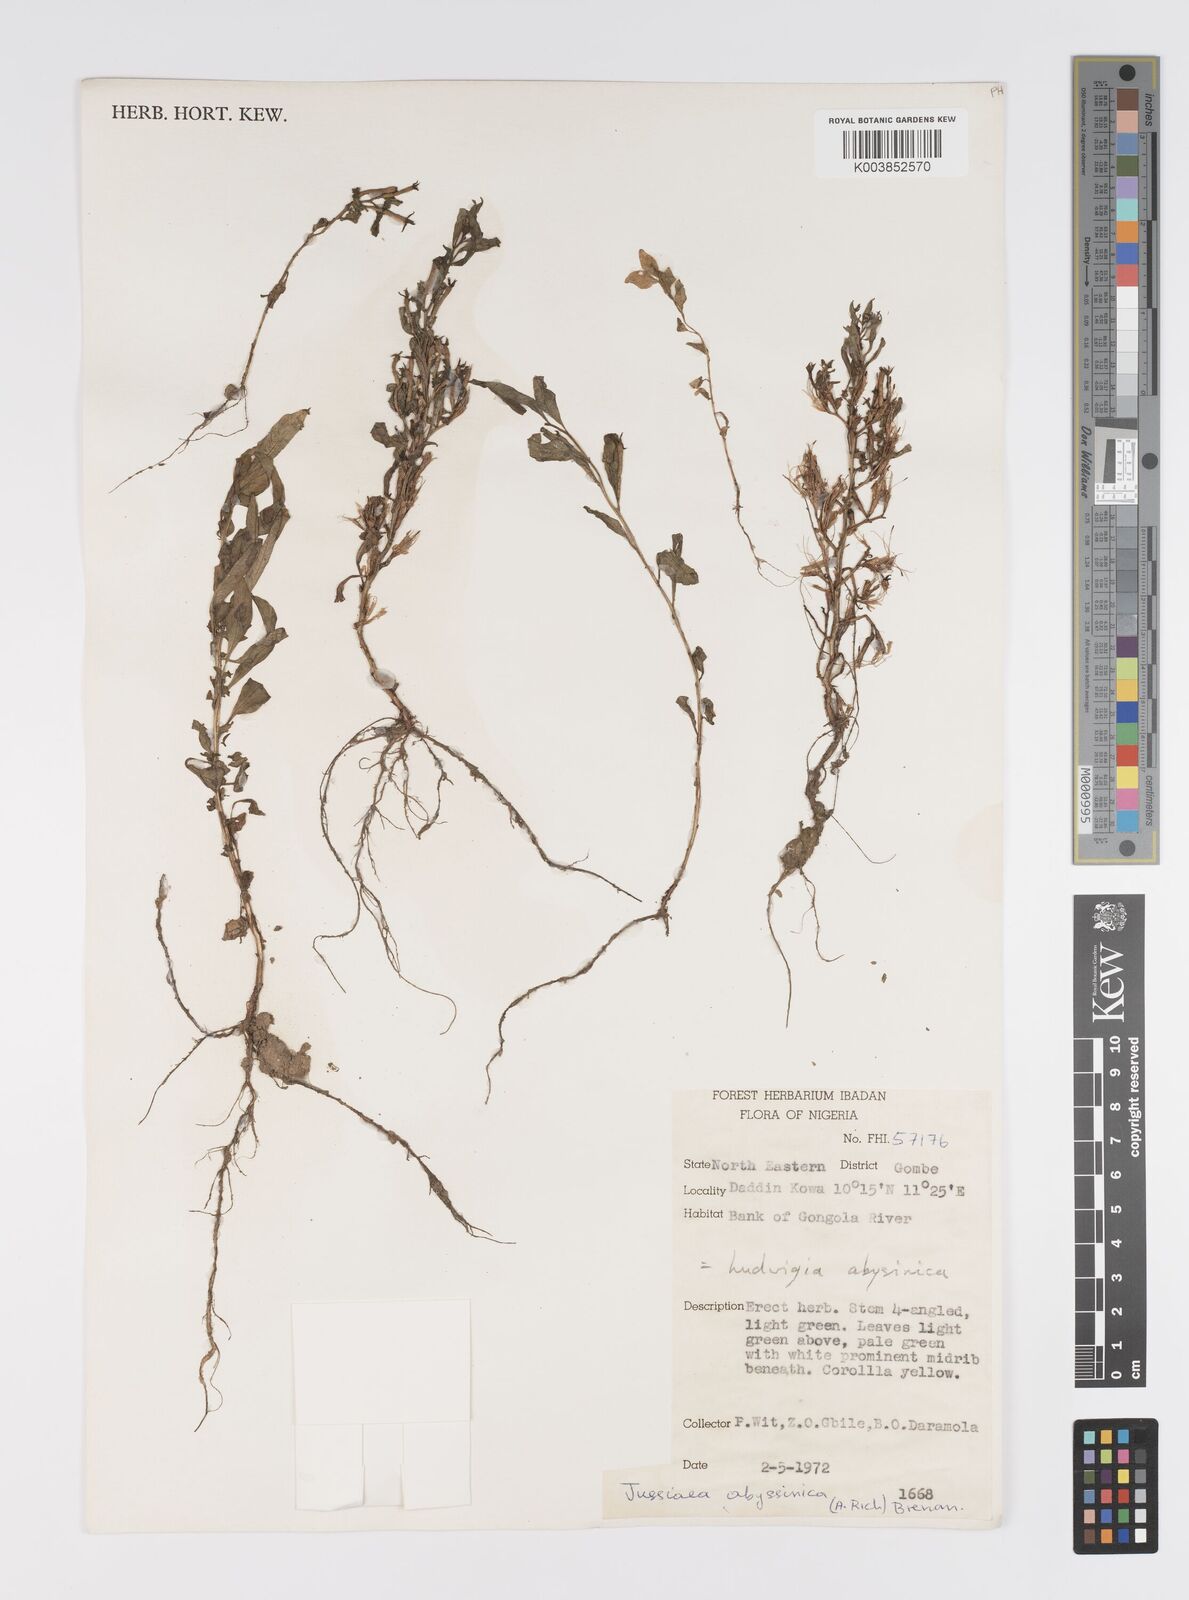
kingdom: Plantae
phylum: Tracheophyta
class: Magnoliopsida
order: Myrtales
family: Onagraceae
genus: Ludwigia
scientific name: Ludwigia abyssinica
